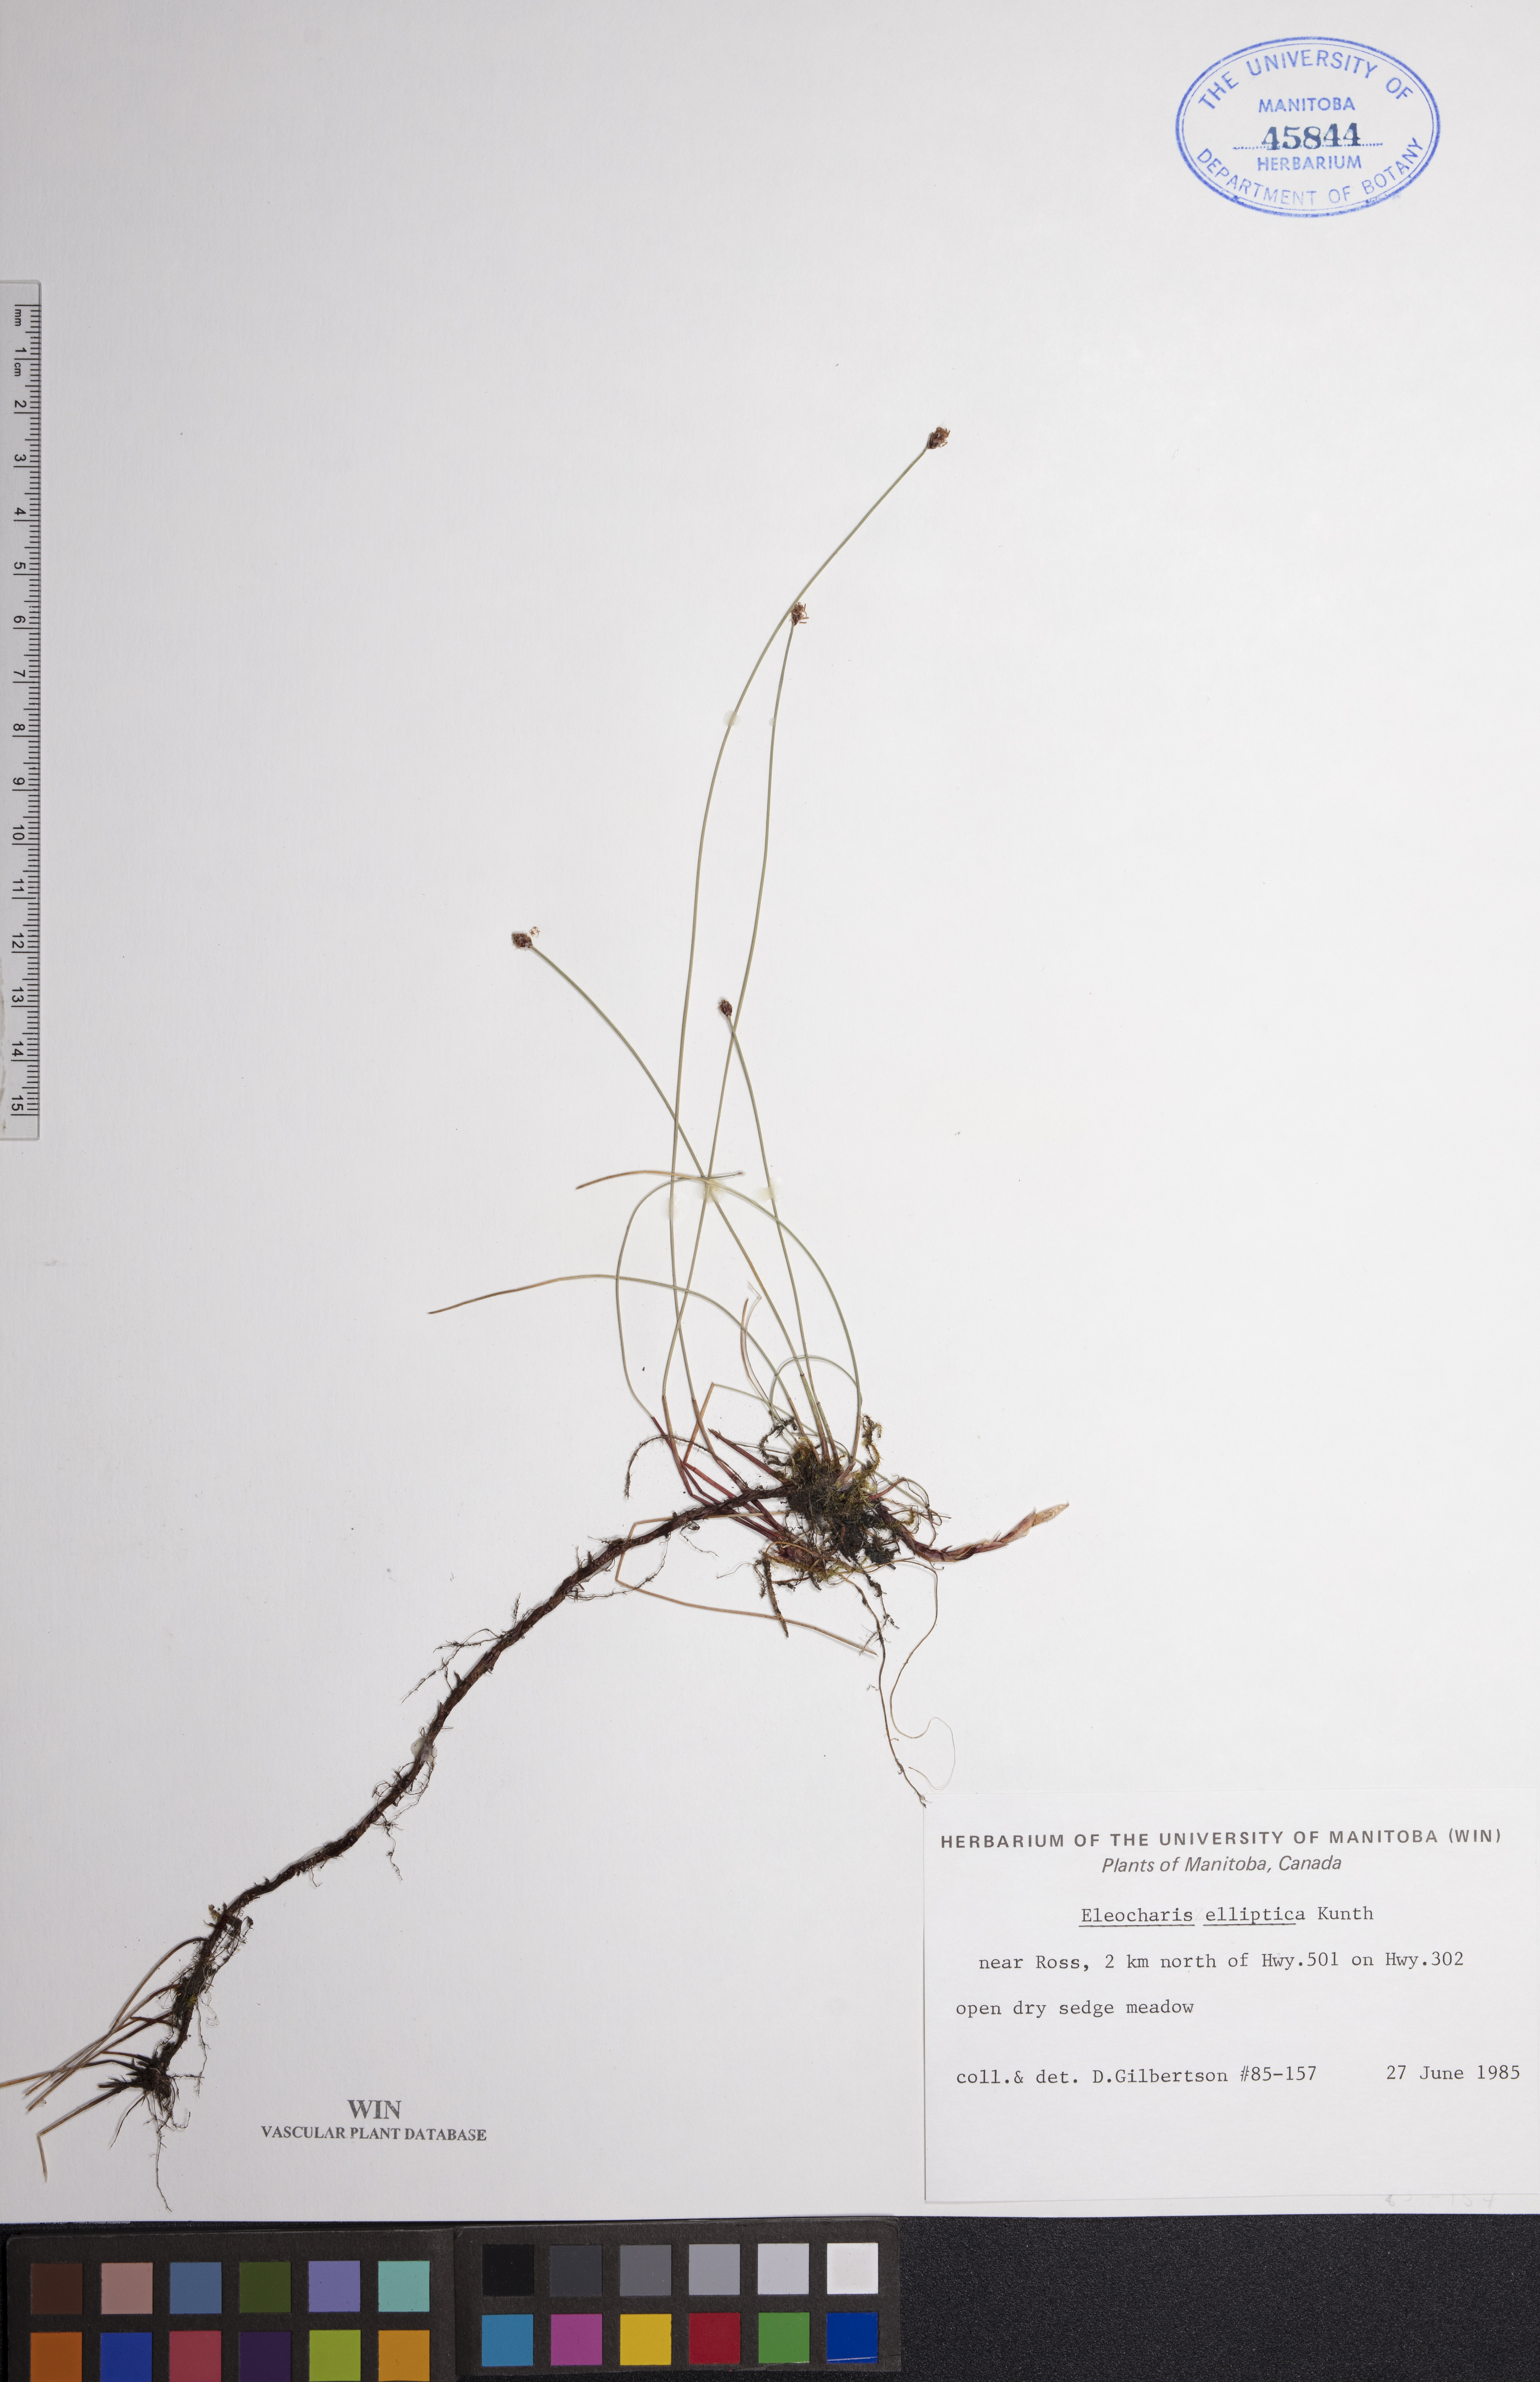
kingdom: Plantae
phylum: Tracheophyta
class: Liliopsida
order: Poales
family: Cyperaceae
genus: Eleocharis
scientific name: Eleocharis elliptica
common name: Capitate spikerush
